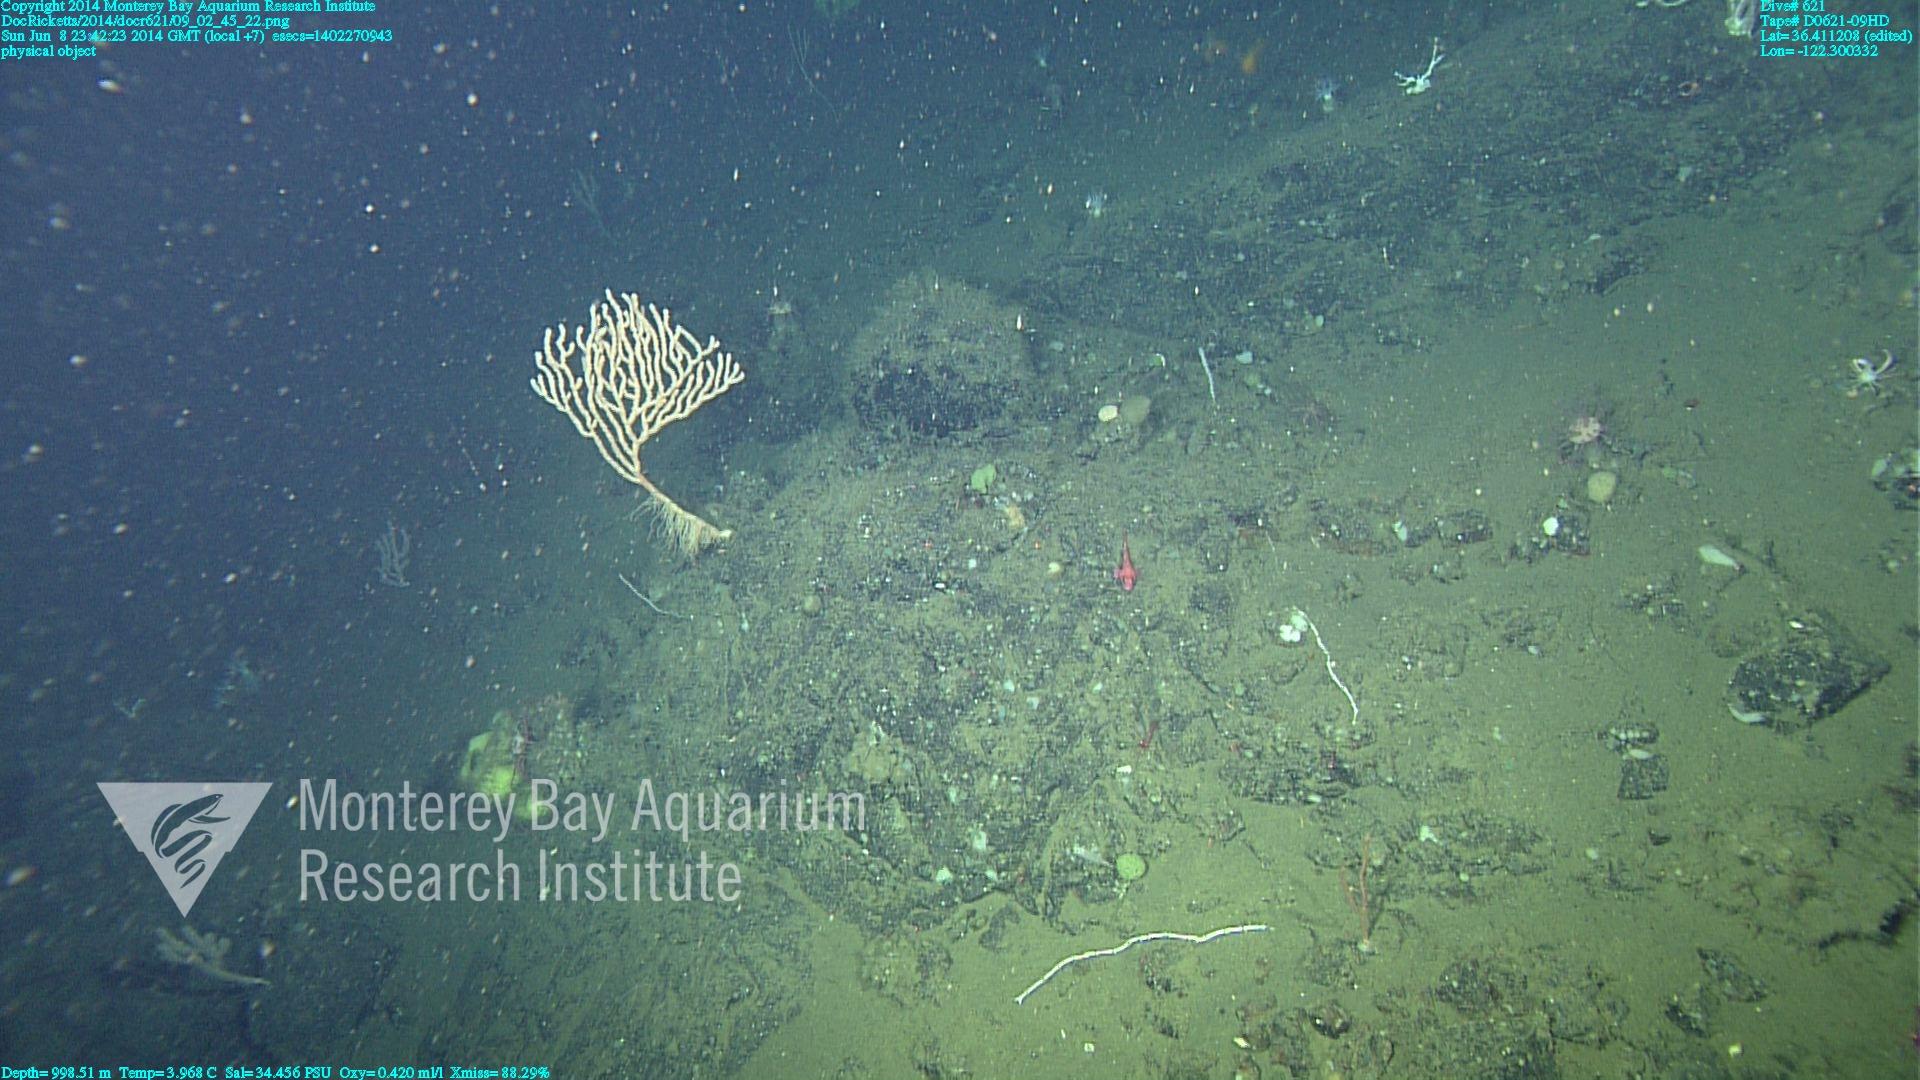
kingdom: Animalia
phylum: Cnidaria
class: Anthozoa
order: Scleralcyonacea
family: Keratoisididae
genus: Isidella
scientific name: Isidella tentaculum
